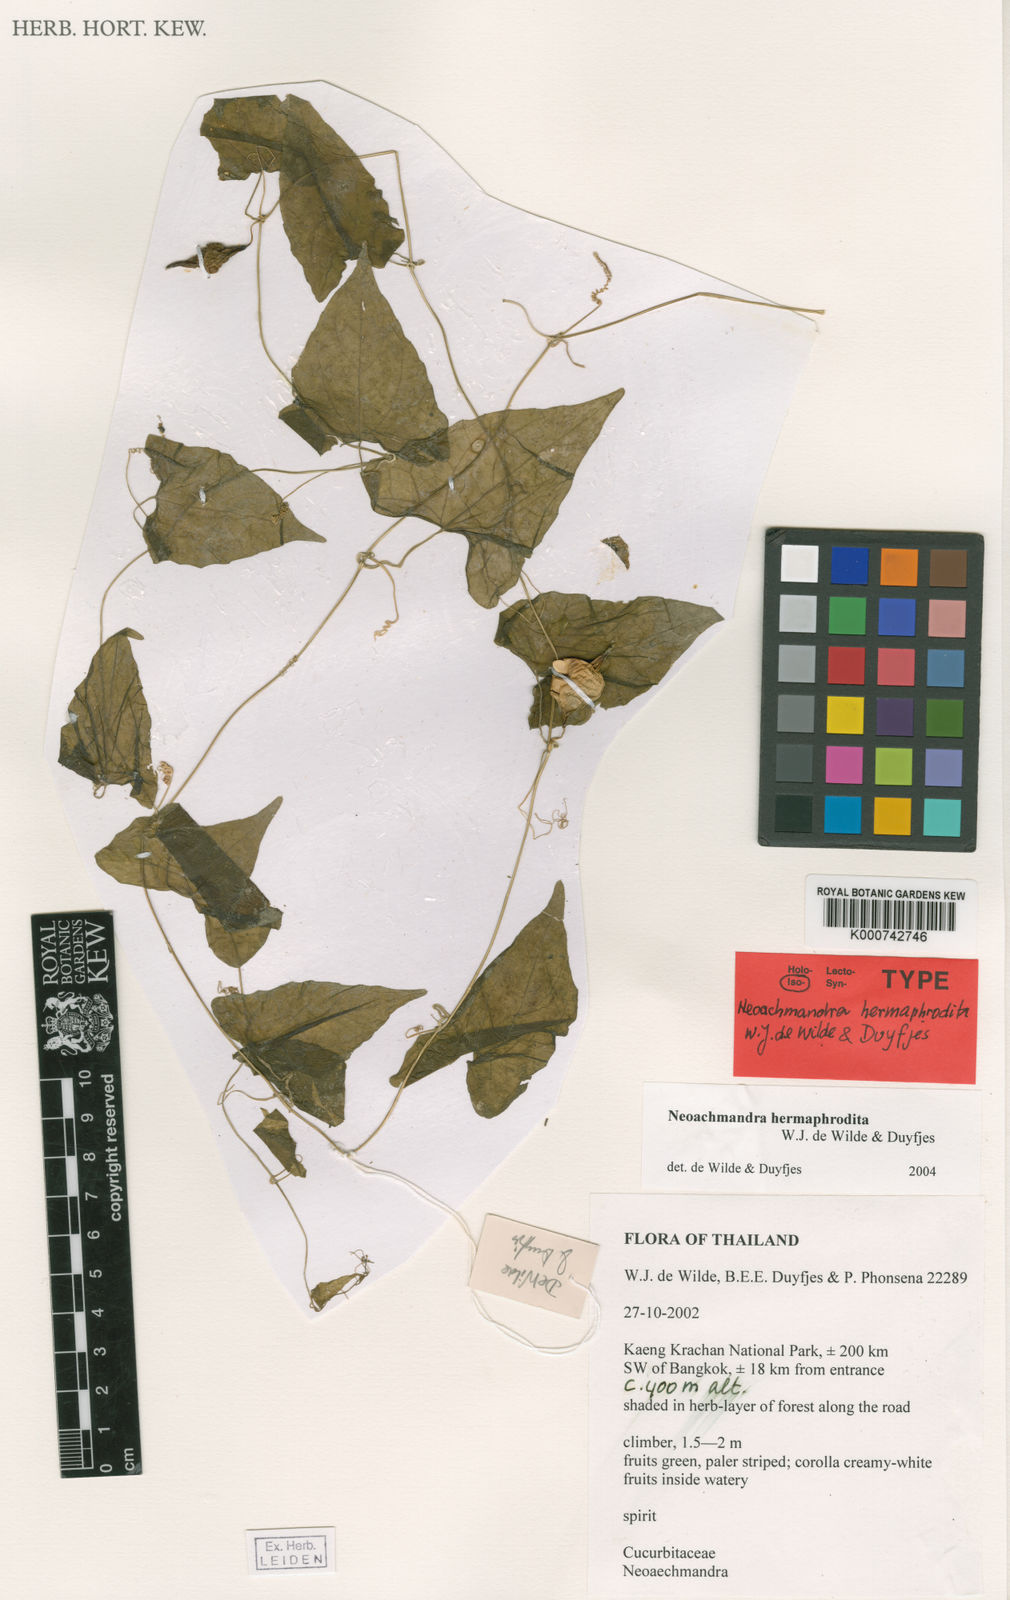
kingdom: Plantae
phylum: Tracheophyta
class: Magnoliopsida
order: Cucurbitales
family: Cucurbitaceae
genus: Zehneria
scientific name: Zehneria hermaphrodita
